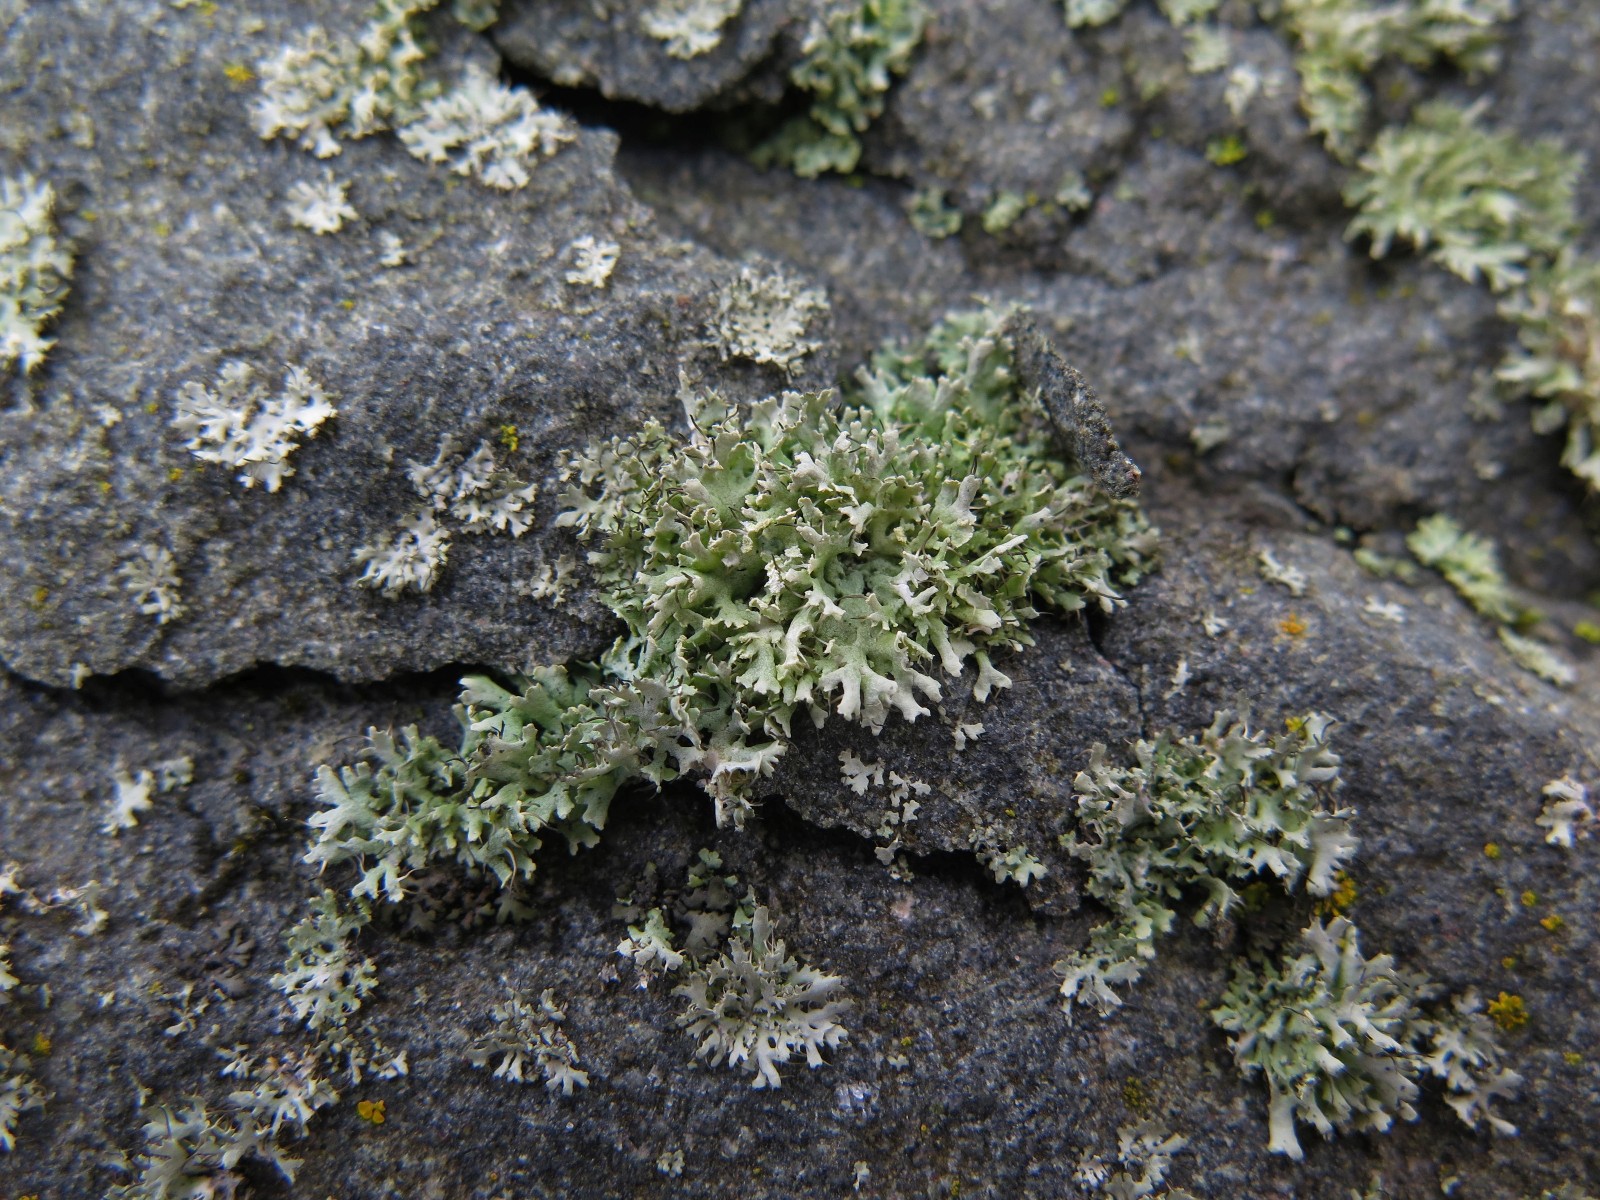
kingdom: Fungi
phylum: Ascomycota
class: Lecanoromycetes
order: Caliciales
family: Physciaceae
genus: Physcia
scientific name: Physcia tenella
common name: spæd rosetlav
